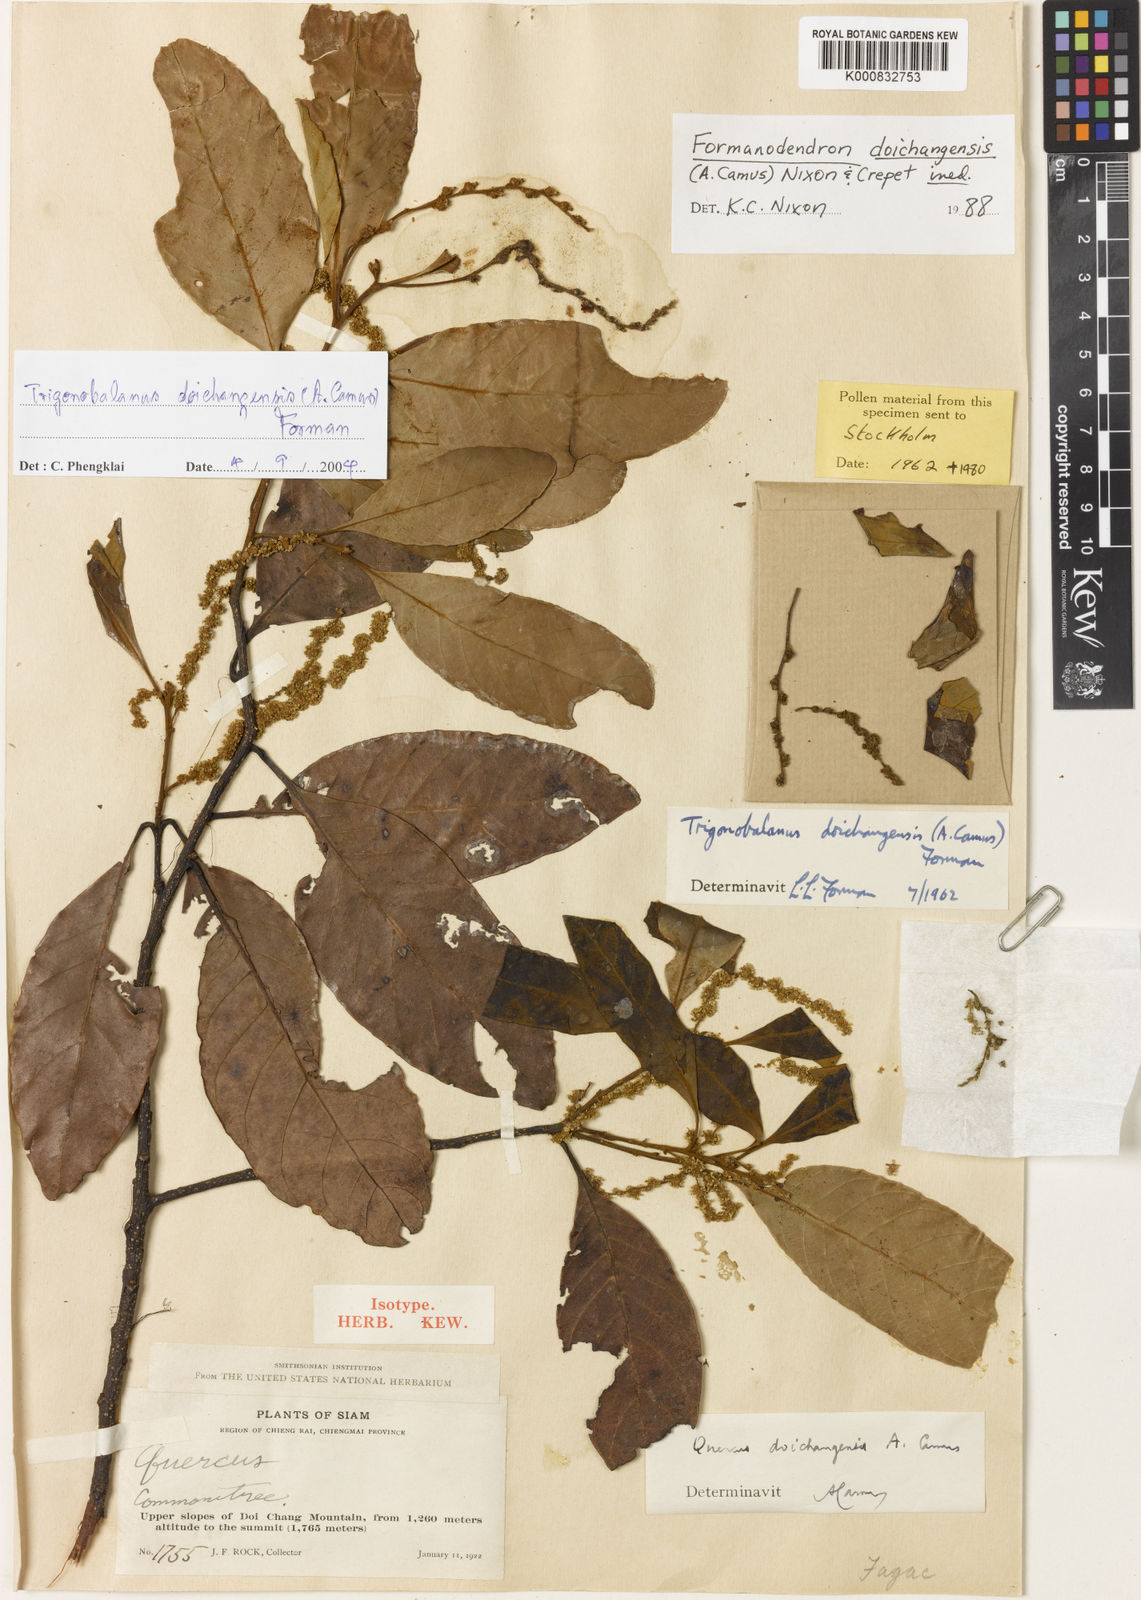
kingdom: Plantae
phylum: Tracheophyta
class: Magnoliopsida
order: Fagales
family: Fagaceae
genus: Trigonobalanus
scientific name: Trigonobalanus doichangensis
